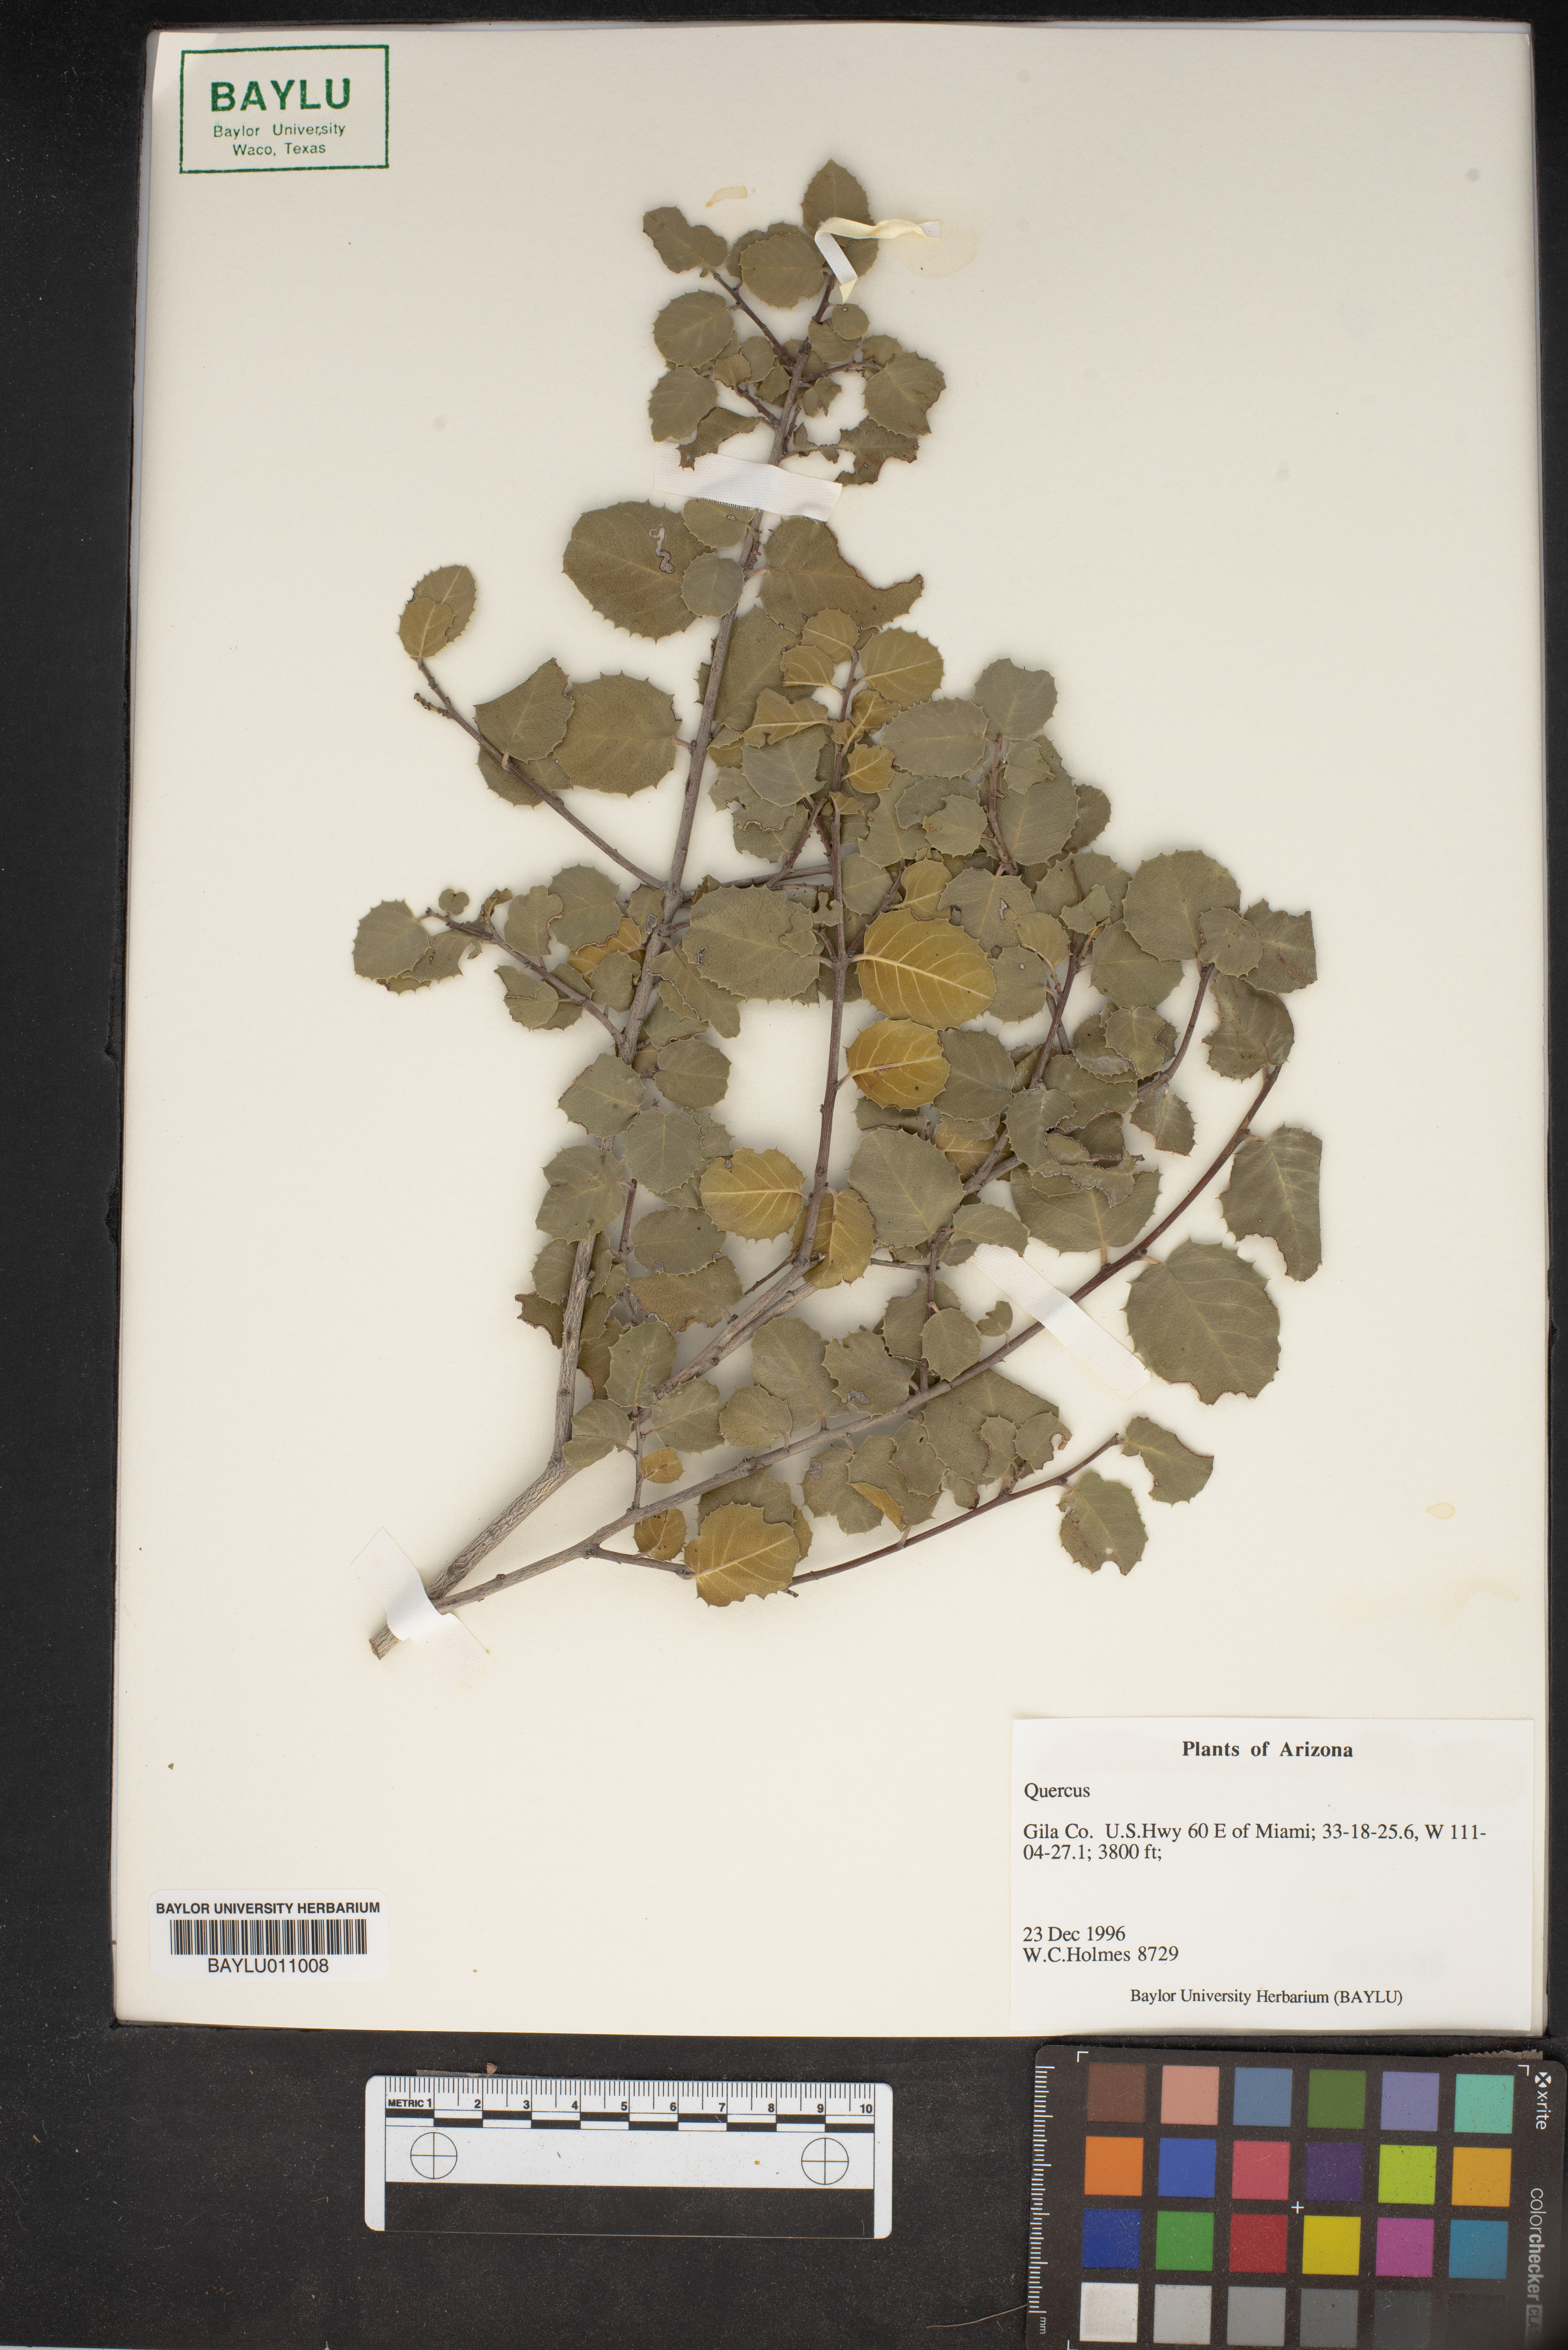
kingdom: Plantae
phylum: Tracheophyta
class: Magnoliopsida
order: Fagales
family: Fagaceae
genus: Quercus
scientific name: Quercus
